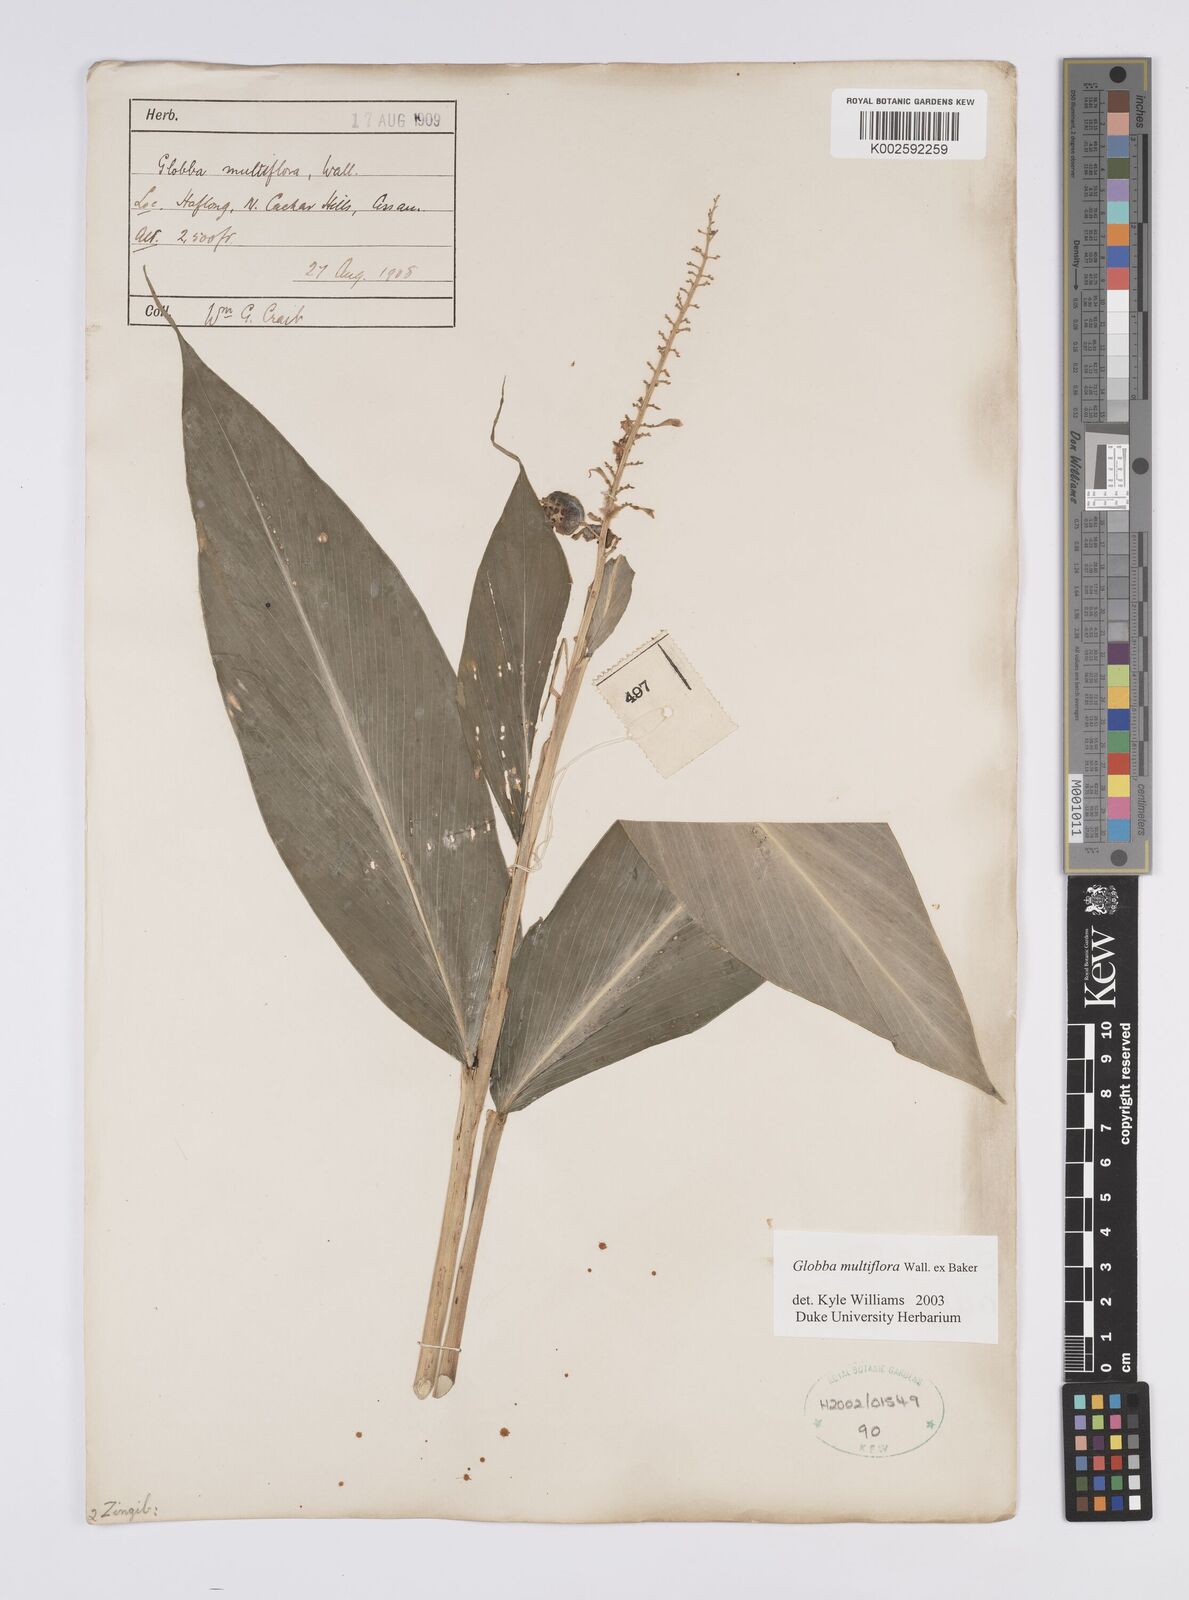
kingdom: Plantae
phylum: Tracheophyta
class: Liliopsida
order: Zingiberales
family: Zingiberaceae
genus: Globba
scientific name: Globba multiflora
